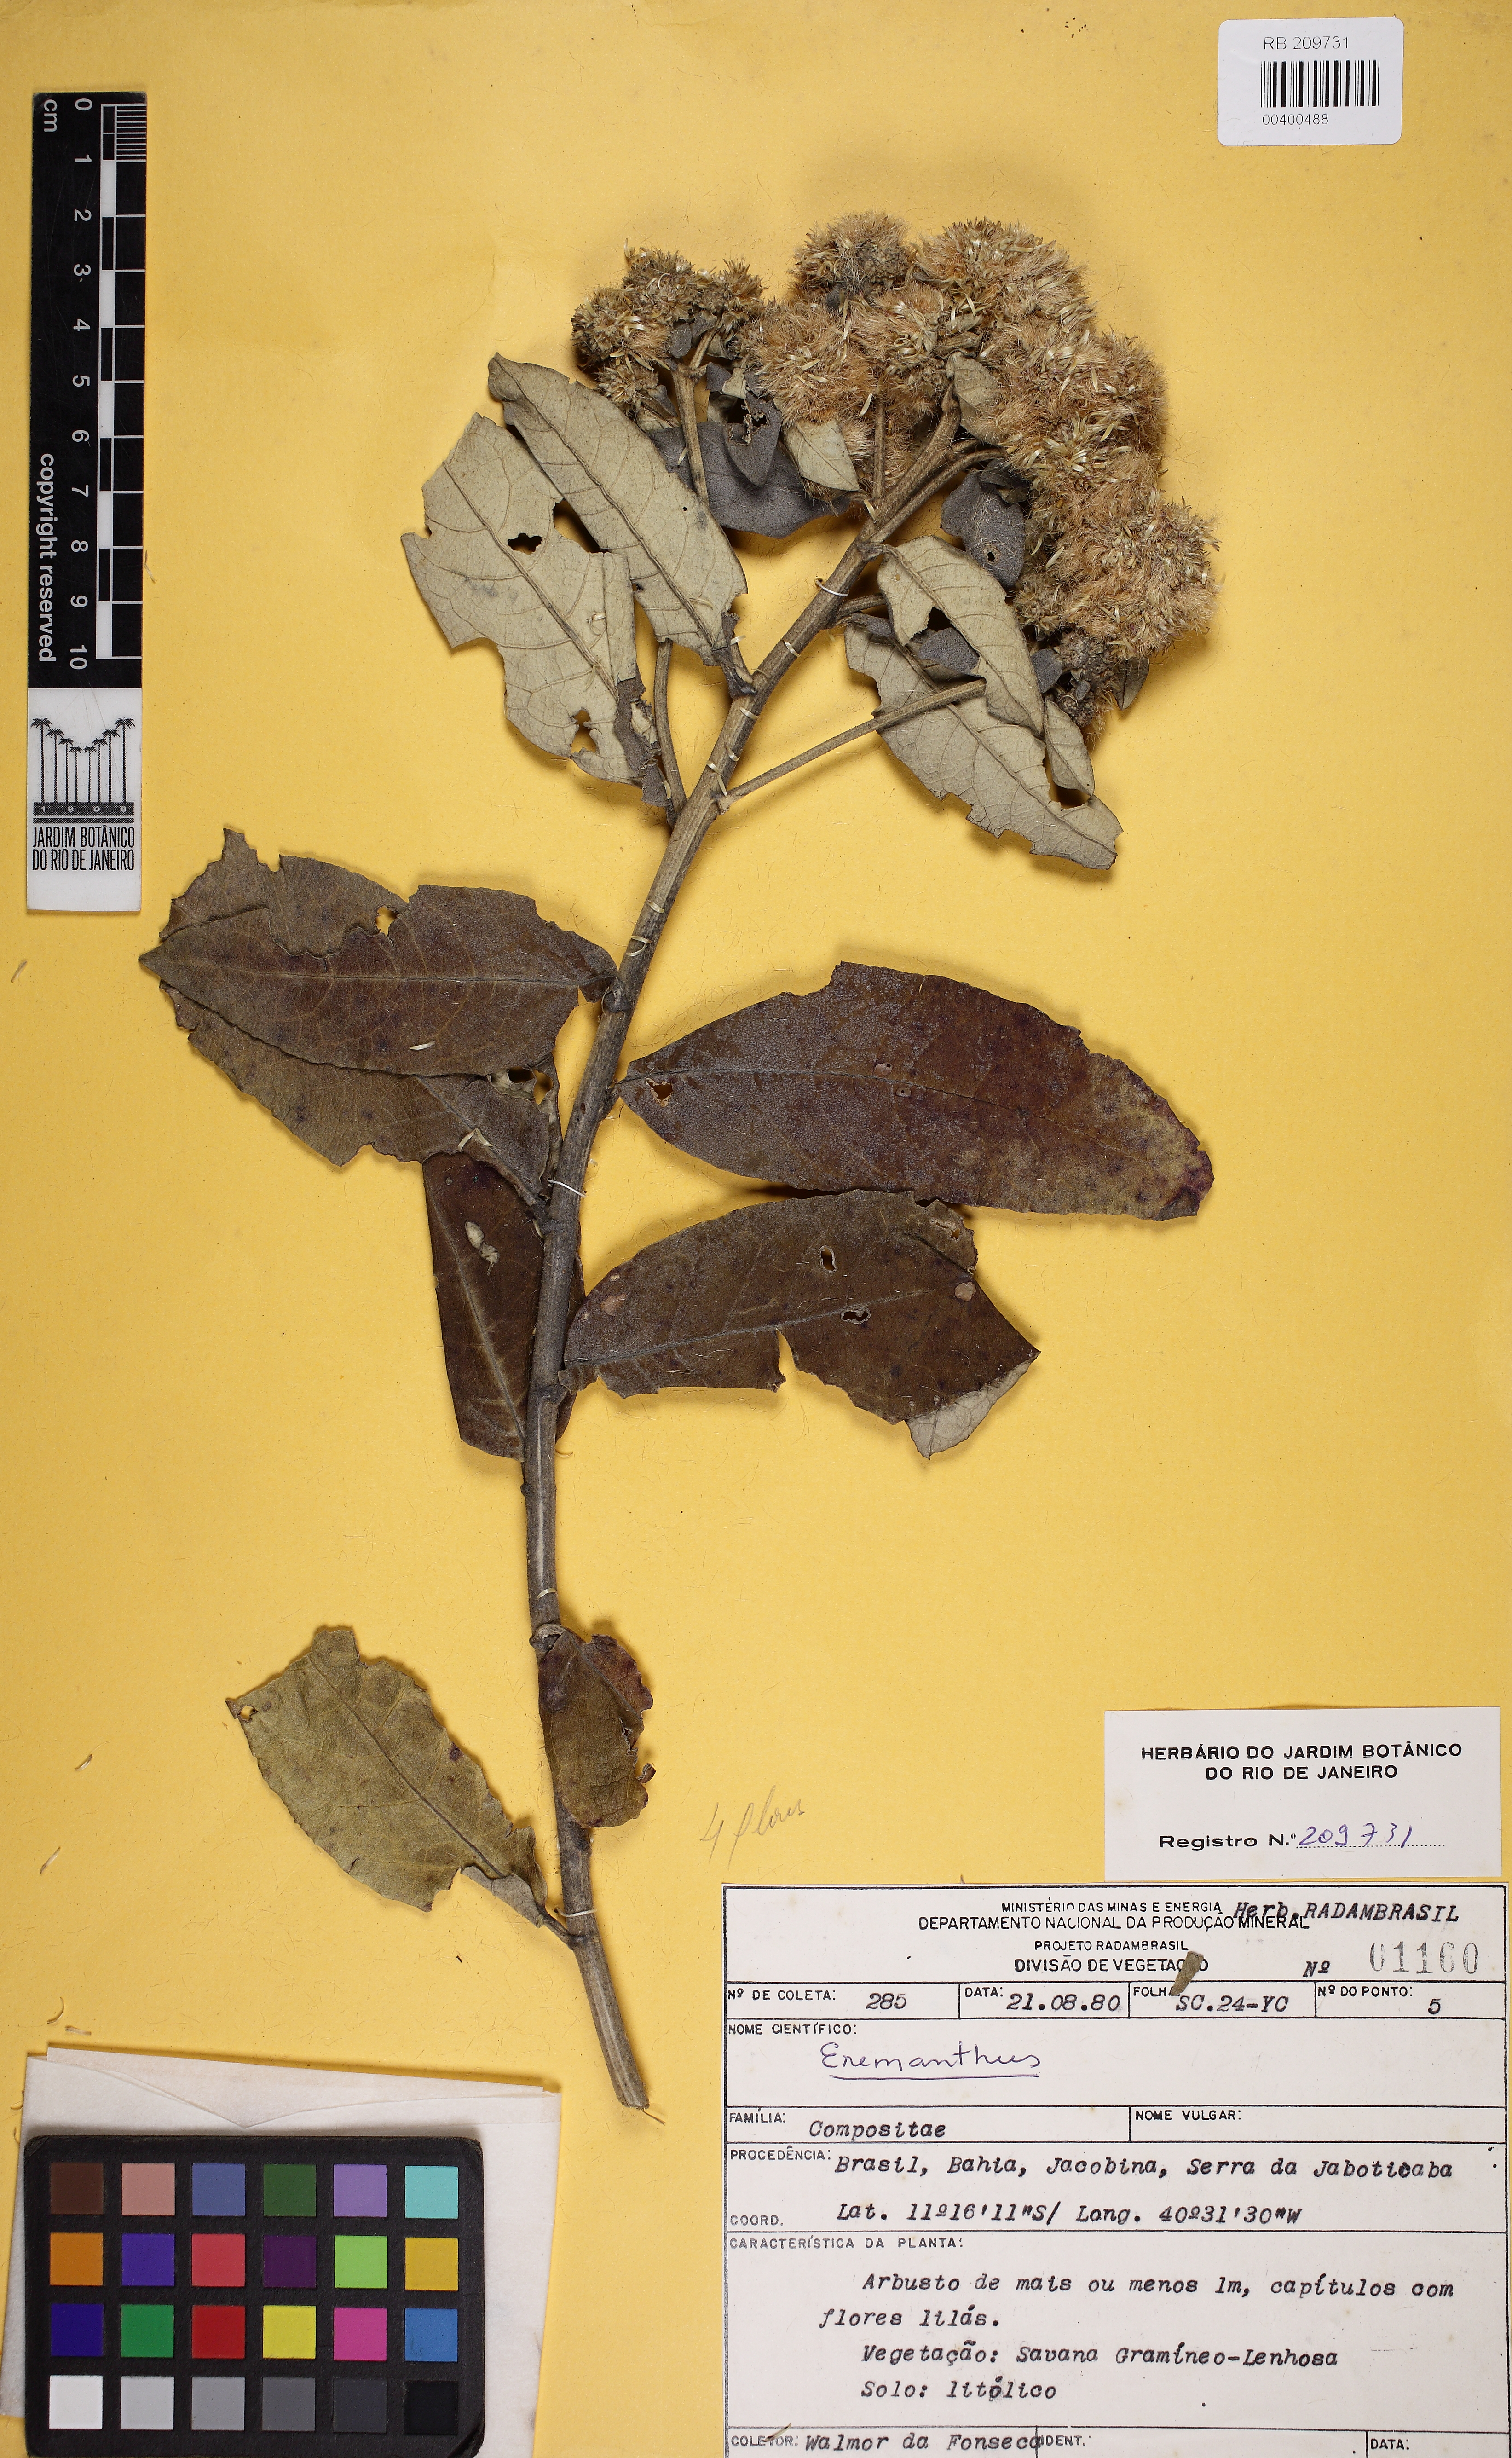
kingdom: Plantae
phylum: Tracheophyta
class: Magnoliopsida
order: Asterales
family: Asteraceae
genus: Eremanthus
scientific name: Eremanthus
